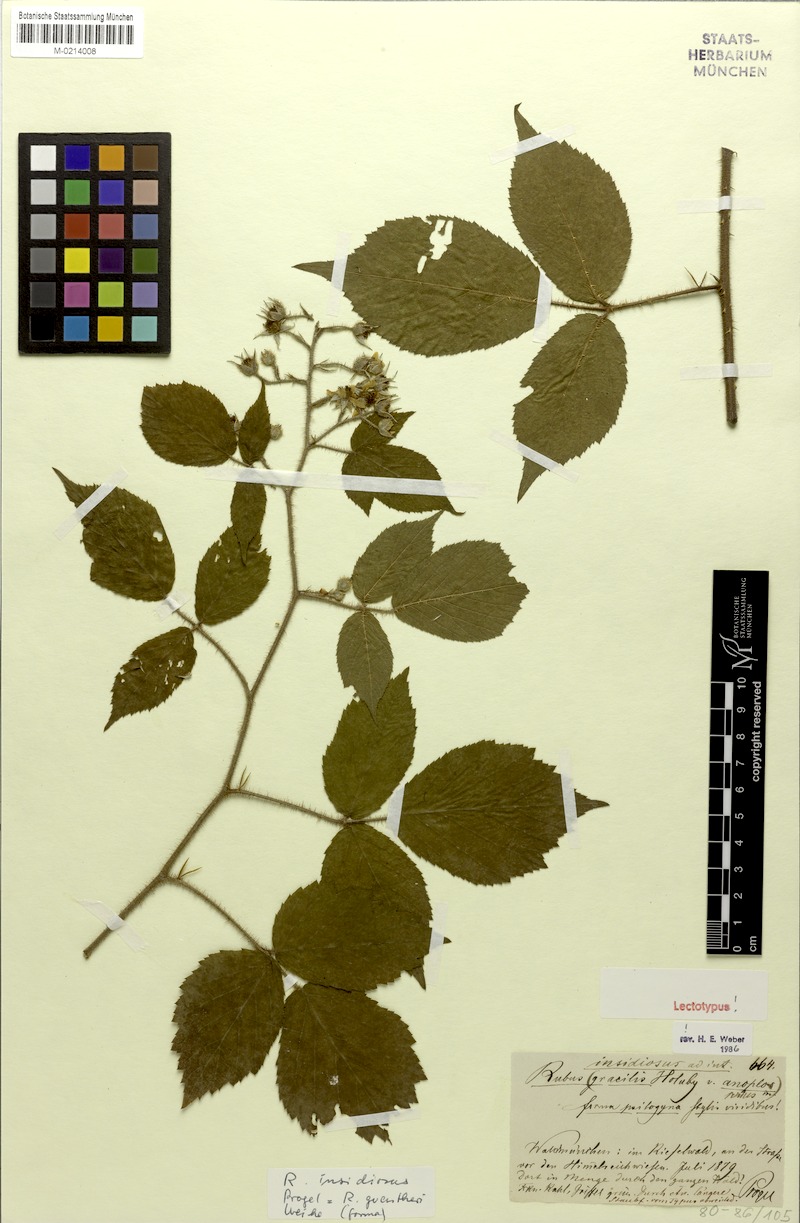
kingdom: Plantae
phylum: Tracheophyta
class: Magnoliopsida
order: Rosales
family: Rosaceae
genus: Rubus
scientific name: Rubus guentheri
